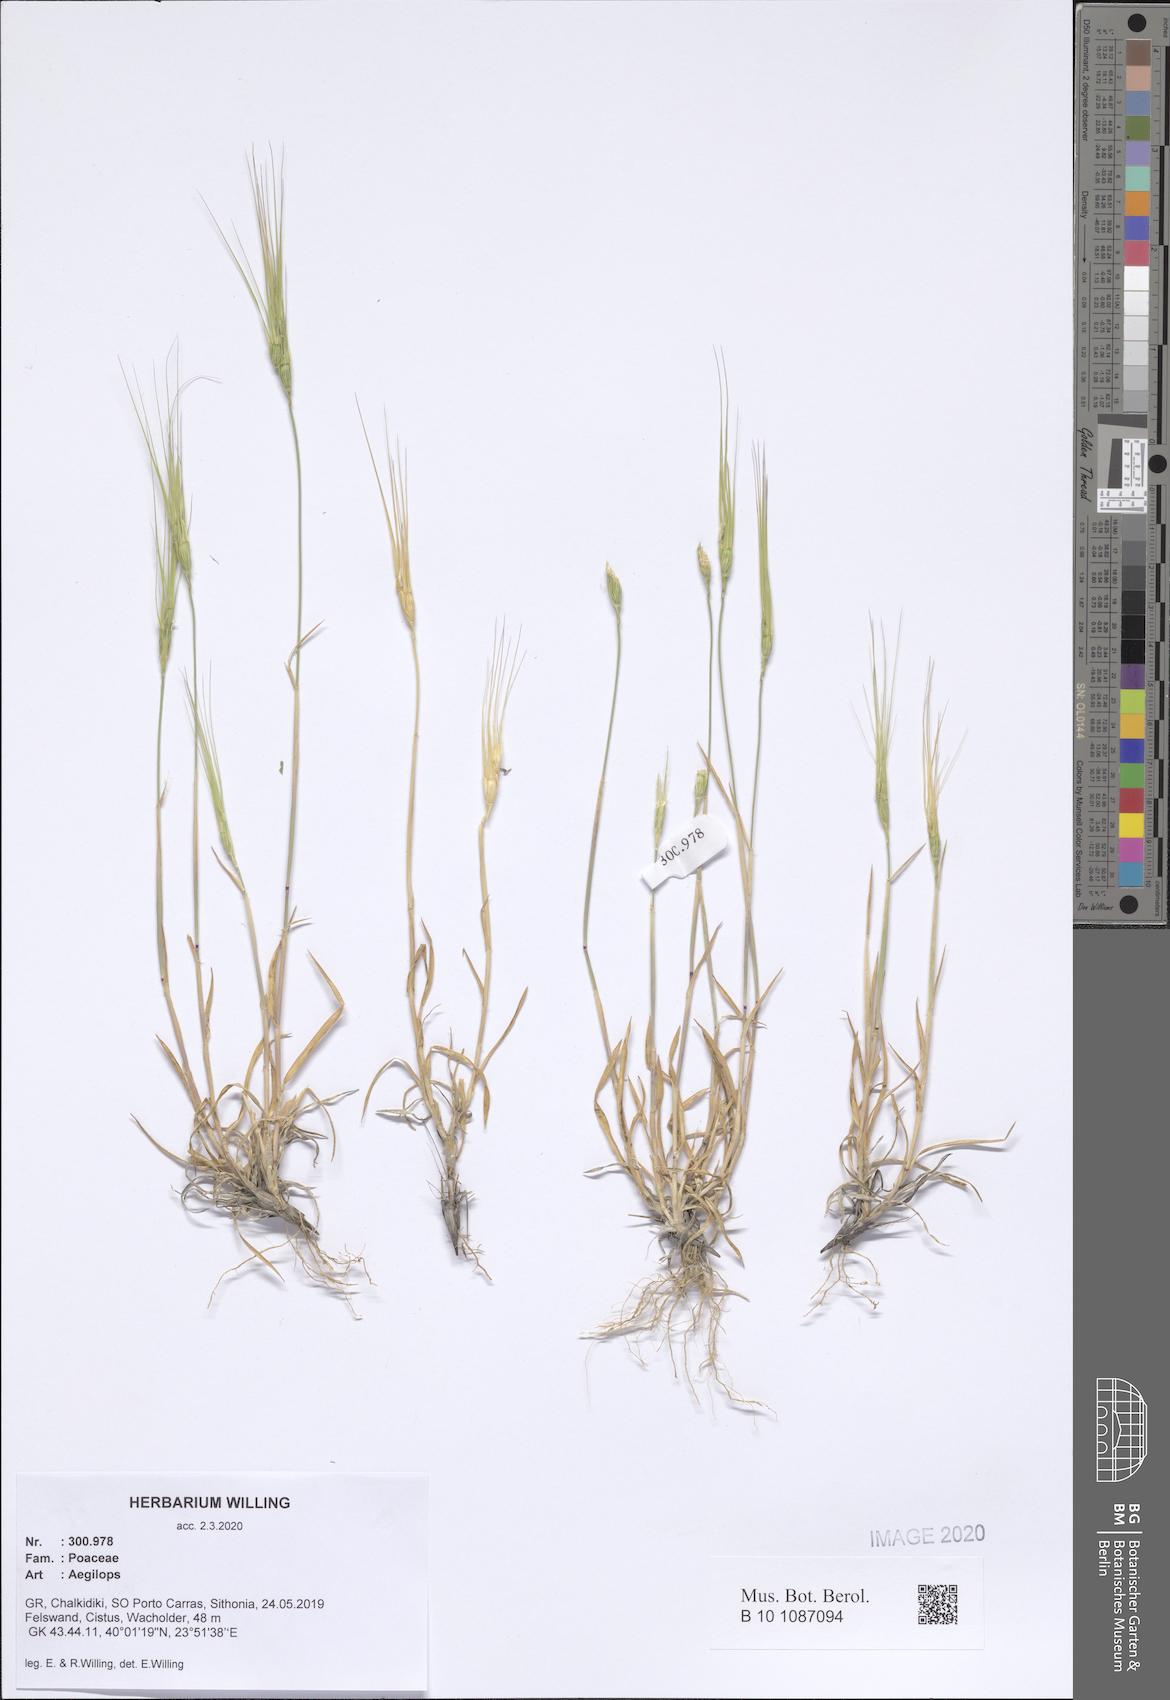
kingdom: Plantae
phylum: Tracheophyta
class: Liliopsida
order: Poales
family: Poaceae
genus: Aegilops
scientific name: Aegilops
